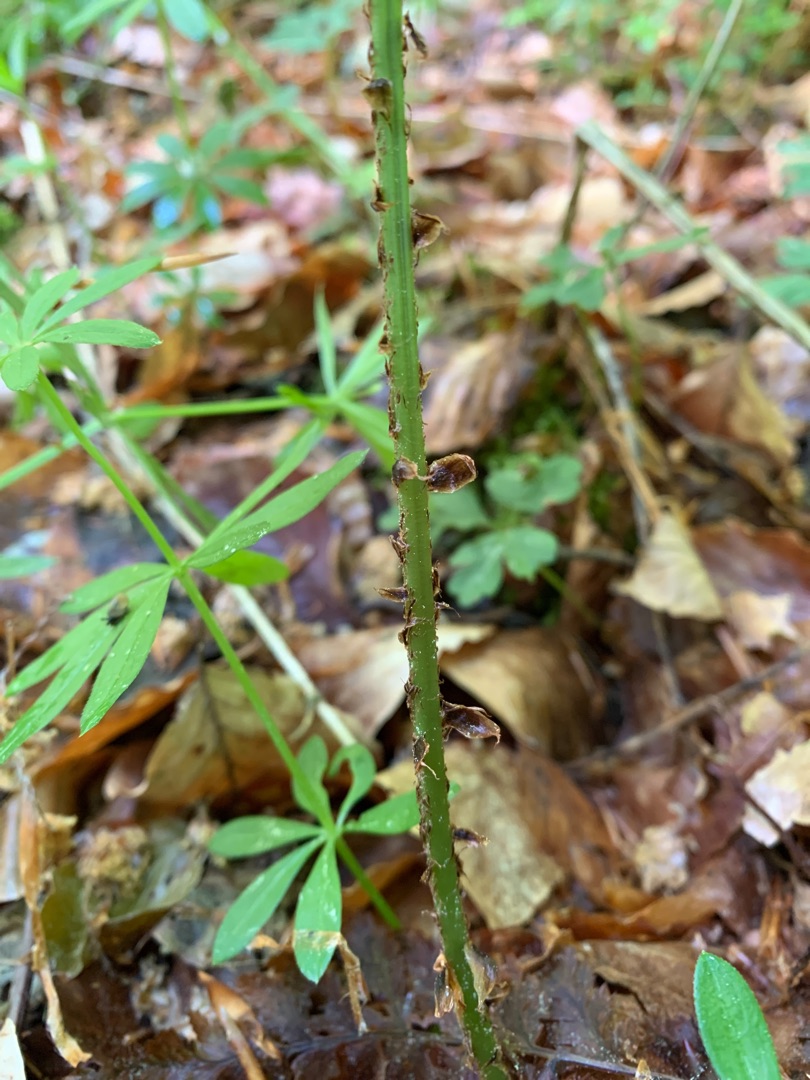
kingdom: Plantae
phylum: Tracheophyta
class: Polypodiopsida
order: Polypodiales
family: Dryopteridaceae
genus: Dryopteris
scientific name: Dryopteris dilatata
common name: Bredbladet mangeløv
